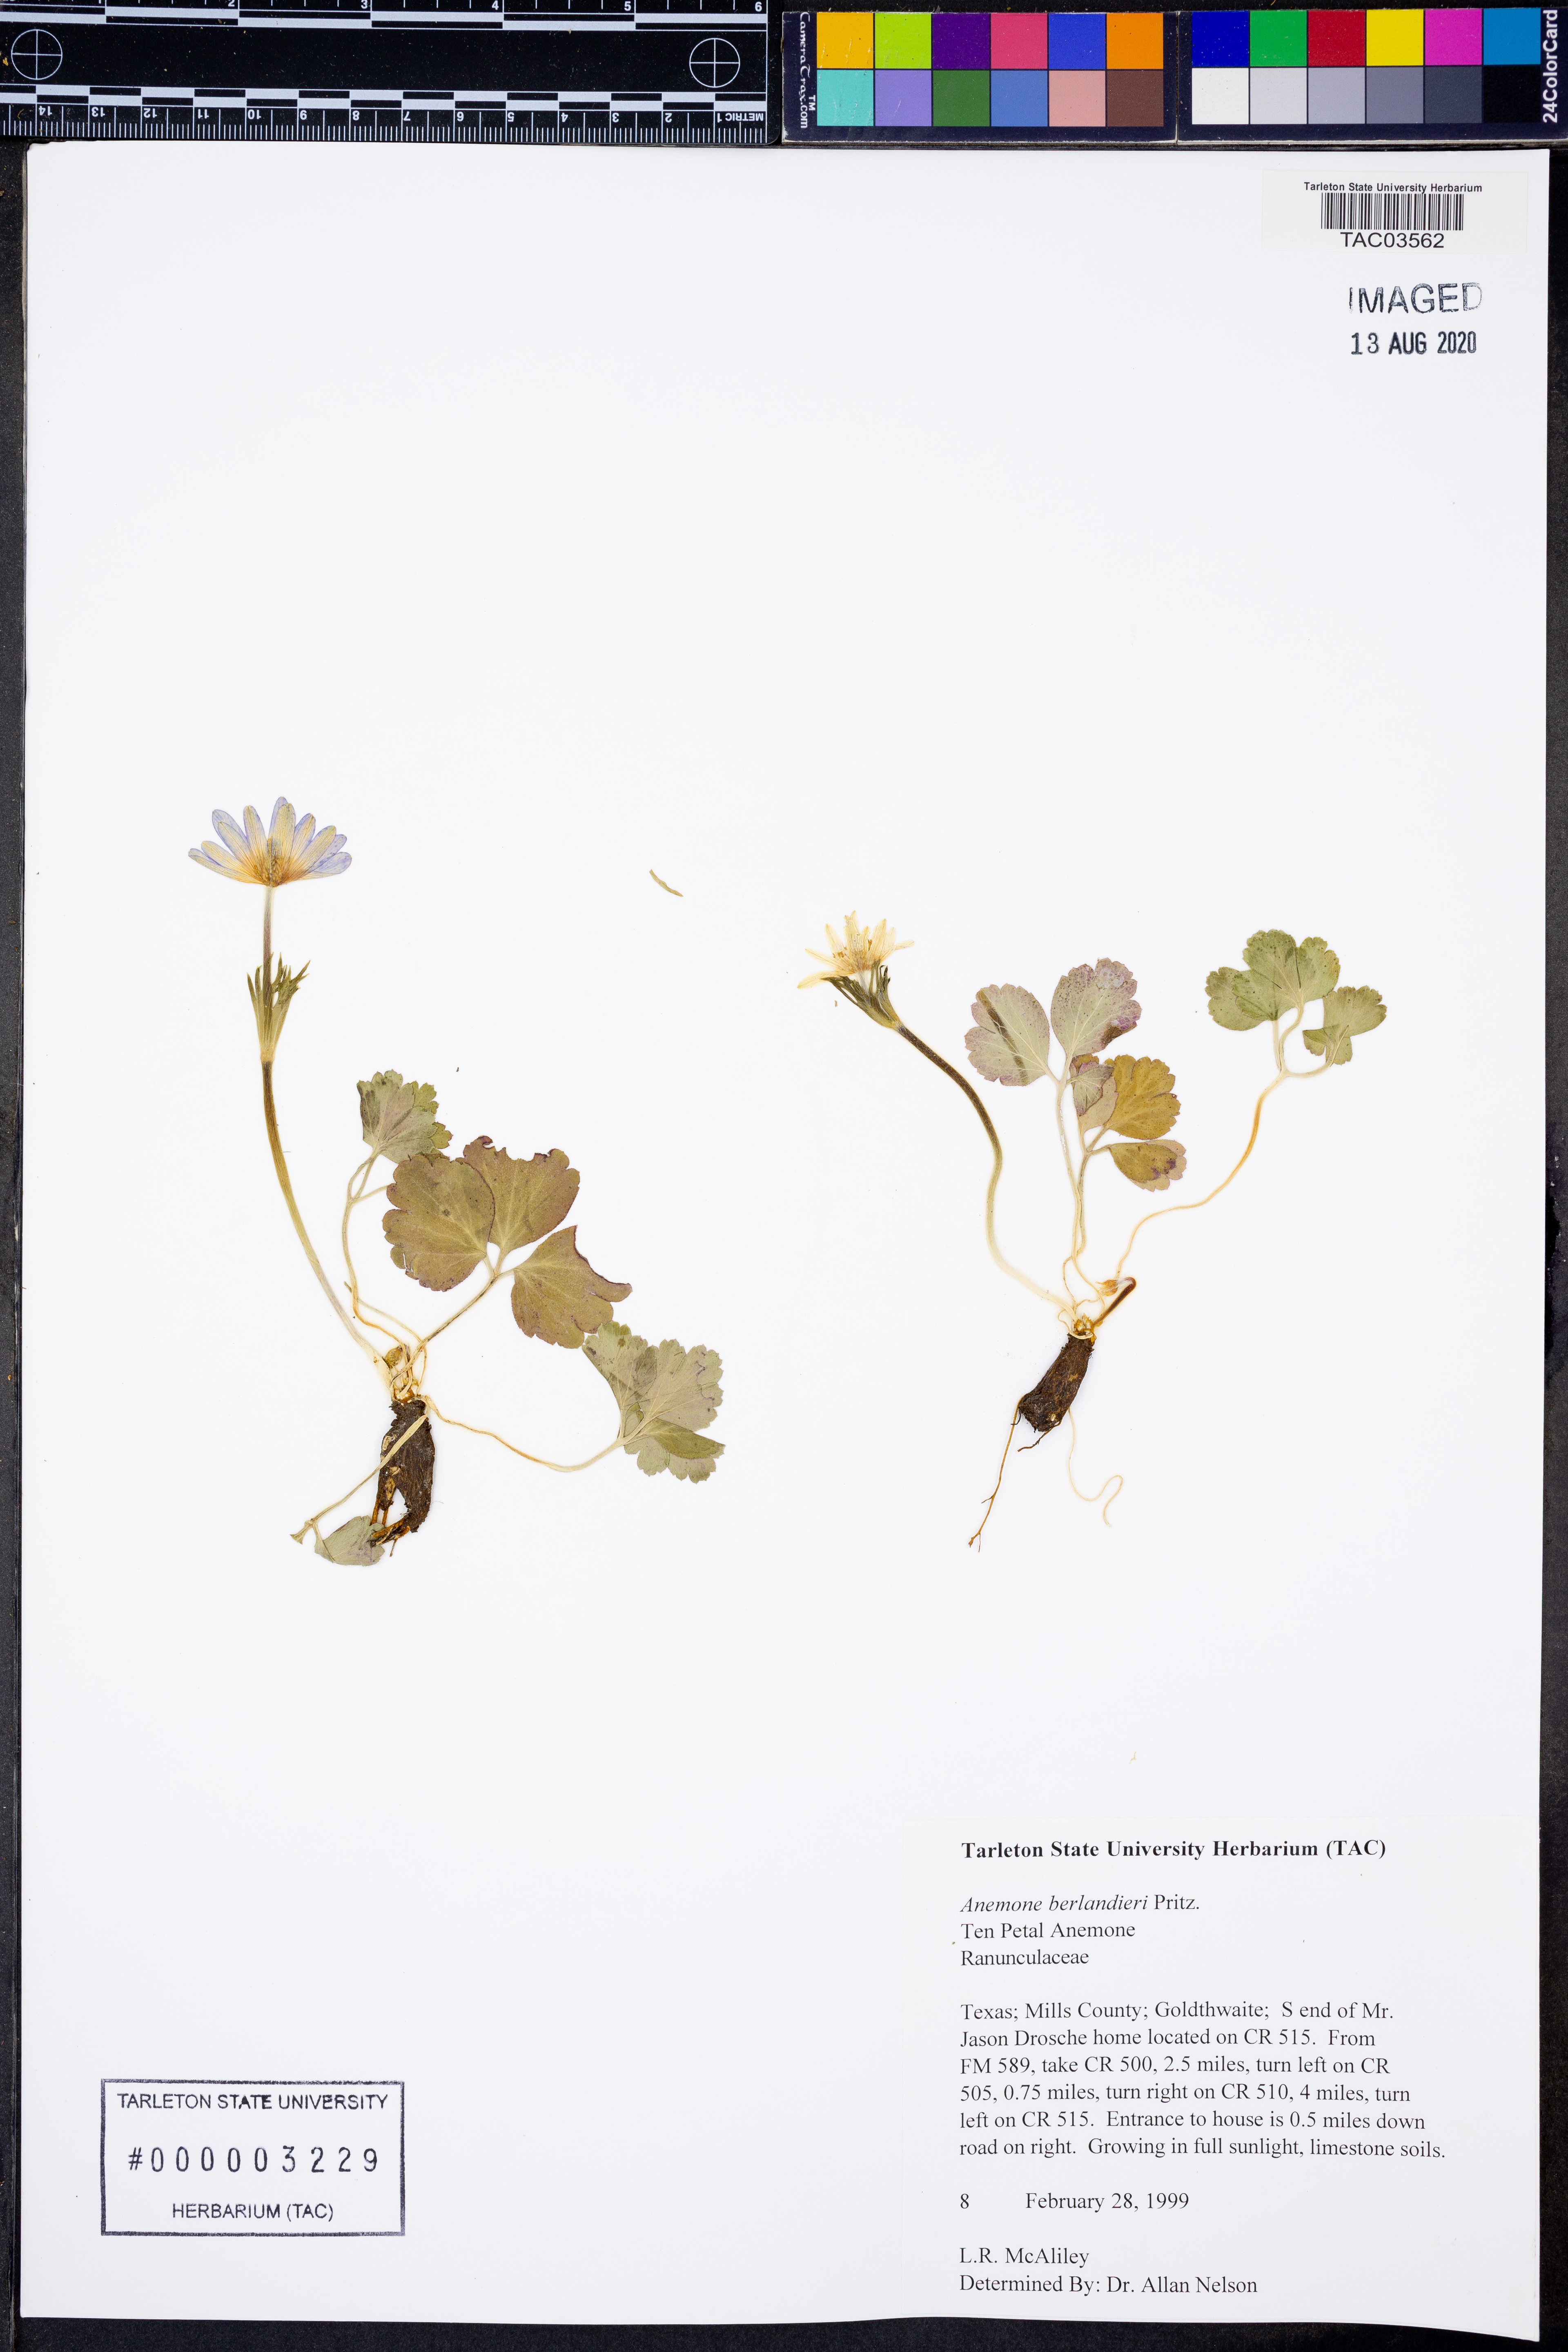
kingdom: Plantae
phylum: Tracheophyta
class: Magnoliopsida
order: Ranunculales
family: Ranunculaceae
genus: Anemone
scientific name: Anemone berlandieri
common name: Ten-petal anemone
